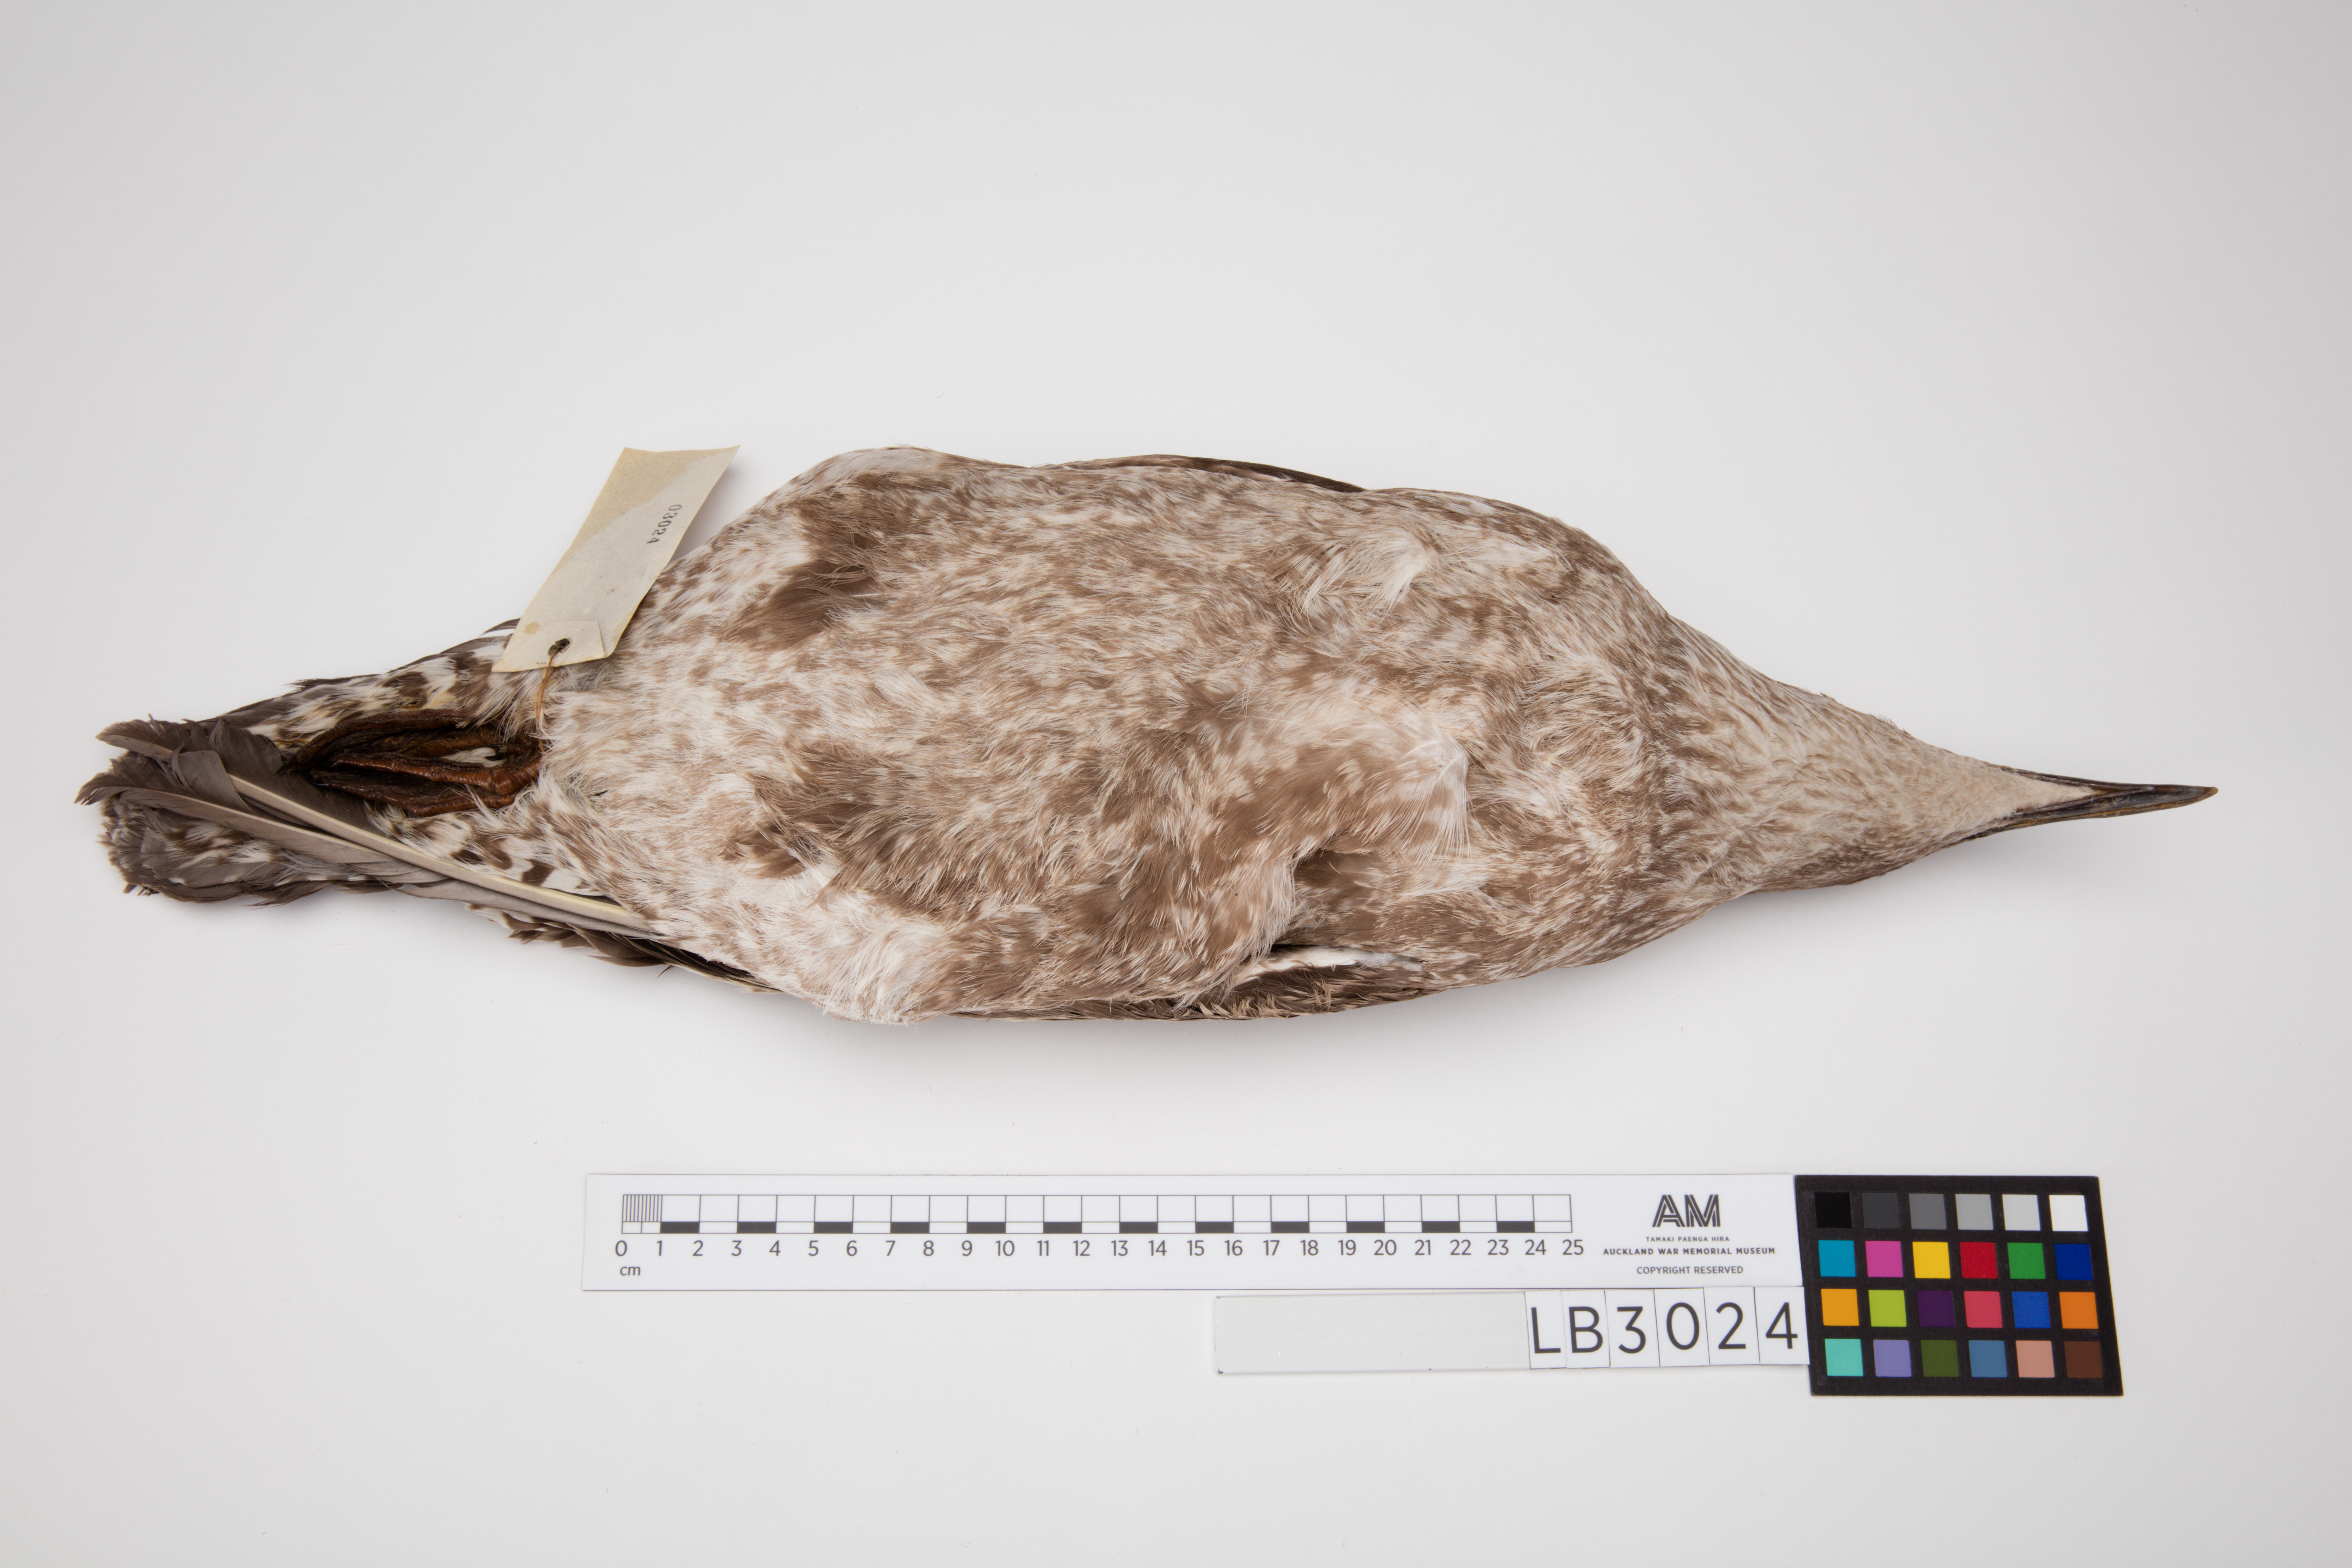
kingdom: Animalia
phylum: Chordata
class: Aves
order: Charadriiformes
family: Laridae
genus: Larus
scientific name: Larus dominicanus
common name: Kelp gull
